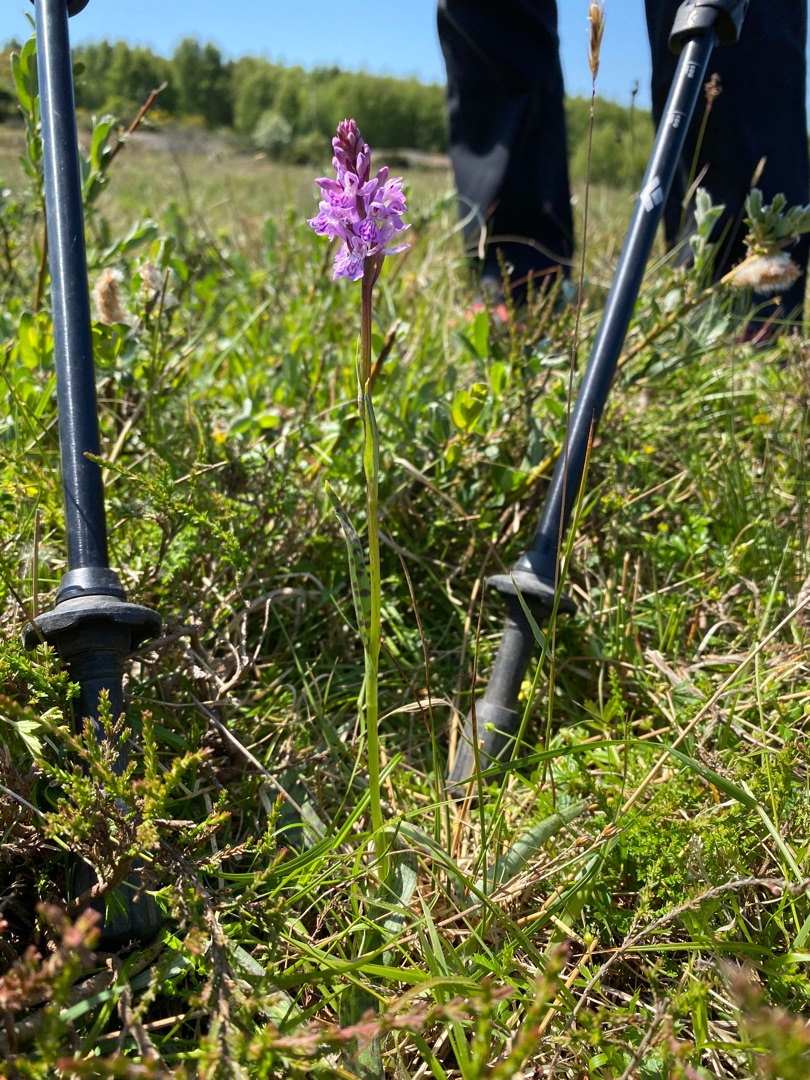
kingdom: Plantae
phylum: Tracheophyta
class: Liliopsida
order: Asparagales
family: Orchidaceae
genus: Dactylorhiza
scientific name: Dactylorhiza maculata
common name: Plettet gøgeurt
